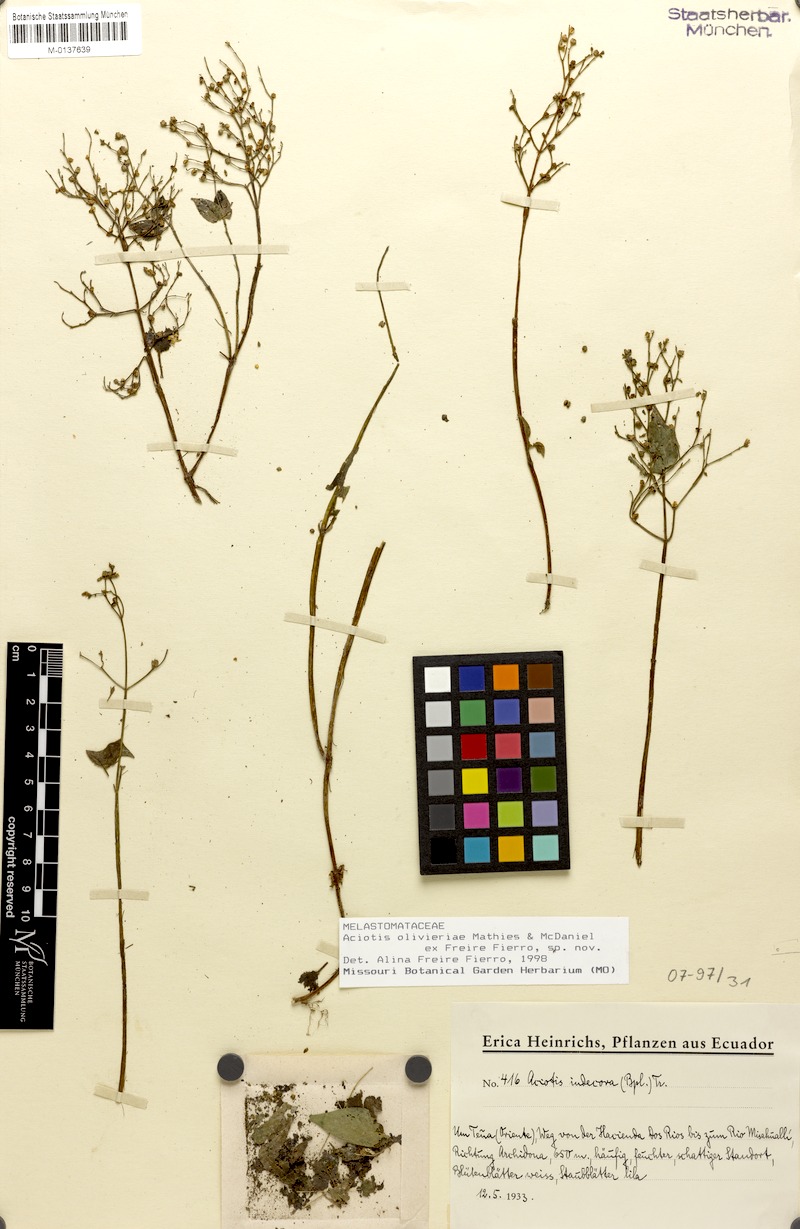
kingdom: Plantae
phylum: Tracheophyta
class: Magnoliopsida
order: Myrtales
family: Melastomataceae
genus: Aciotis
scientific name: Aciotis olivieriana
